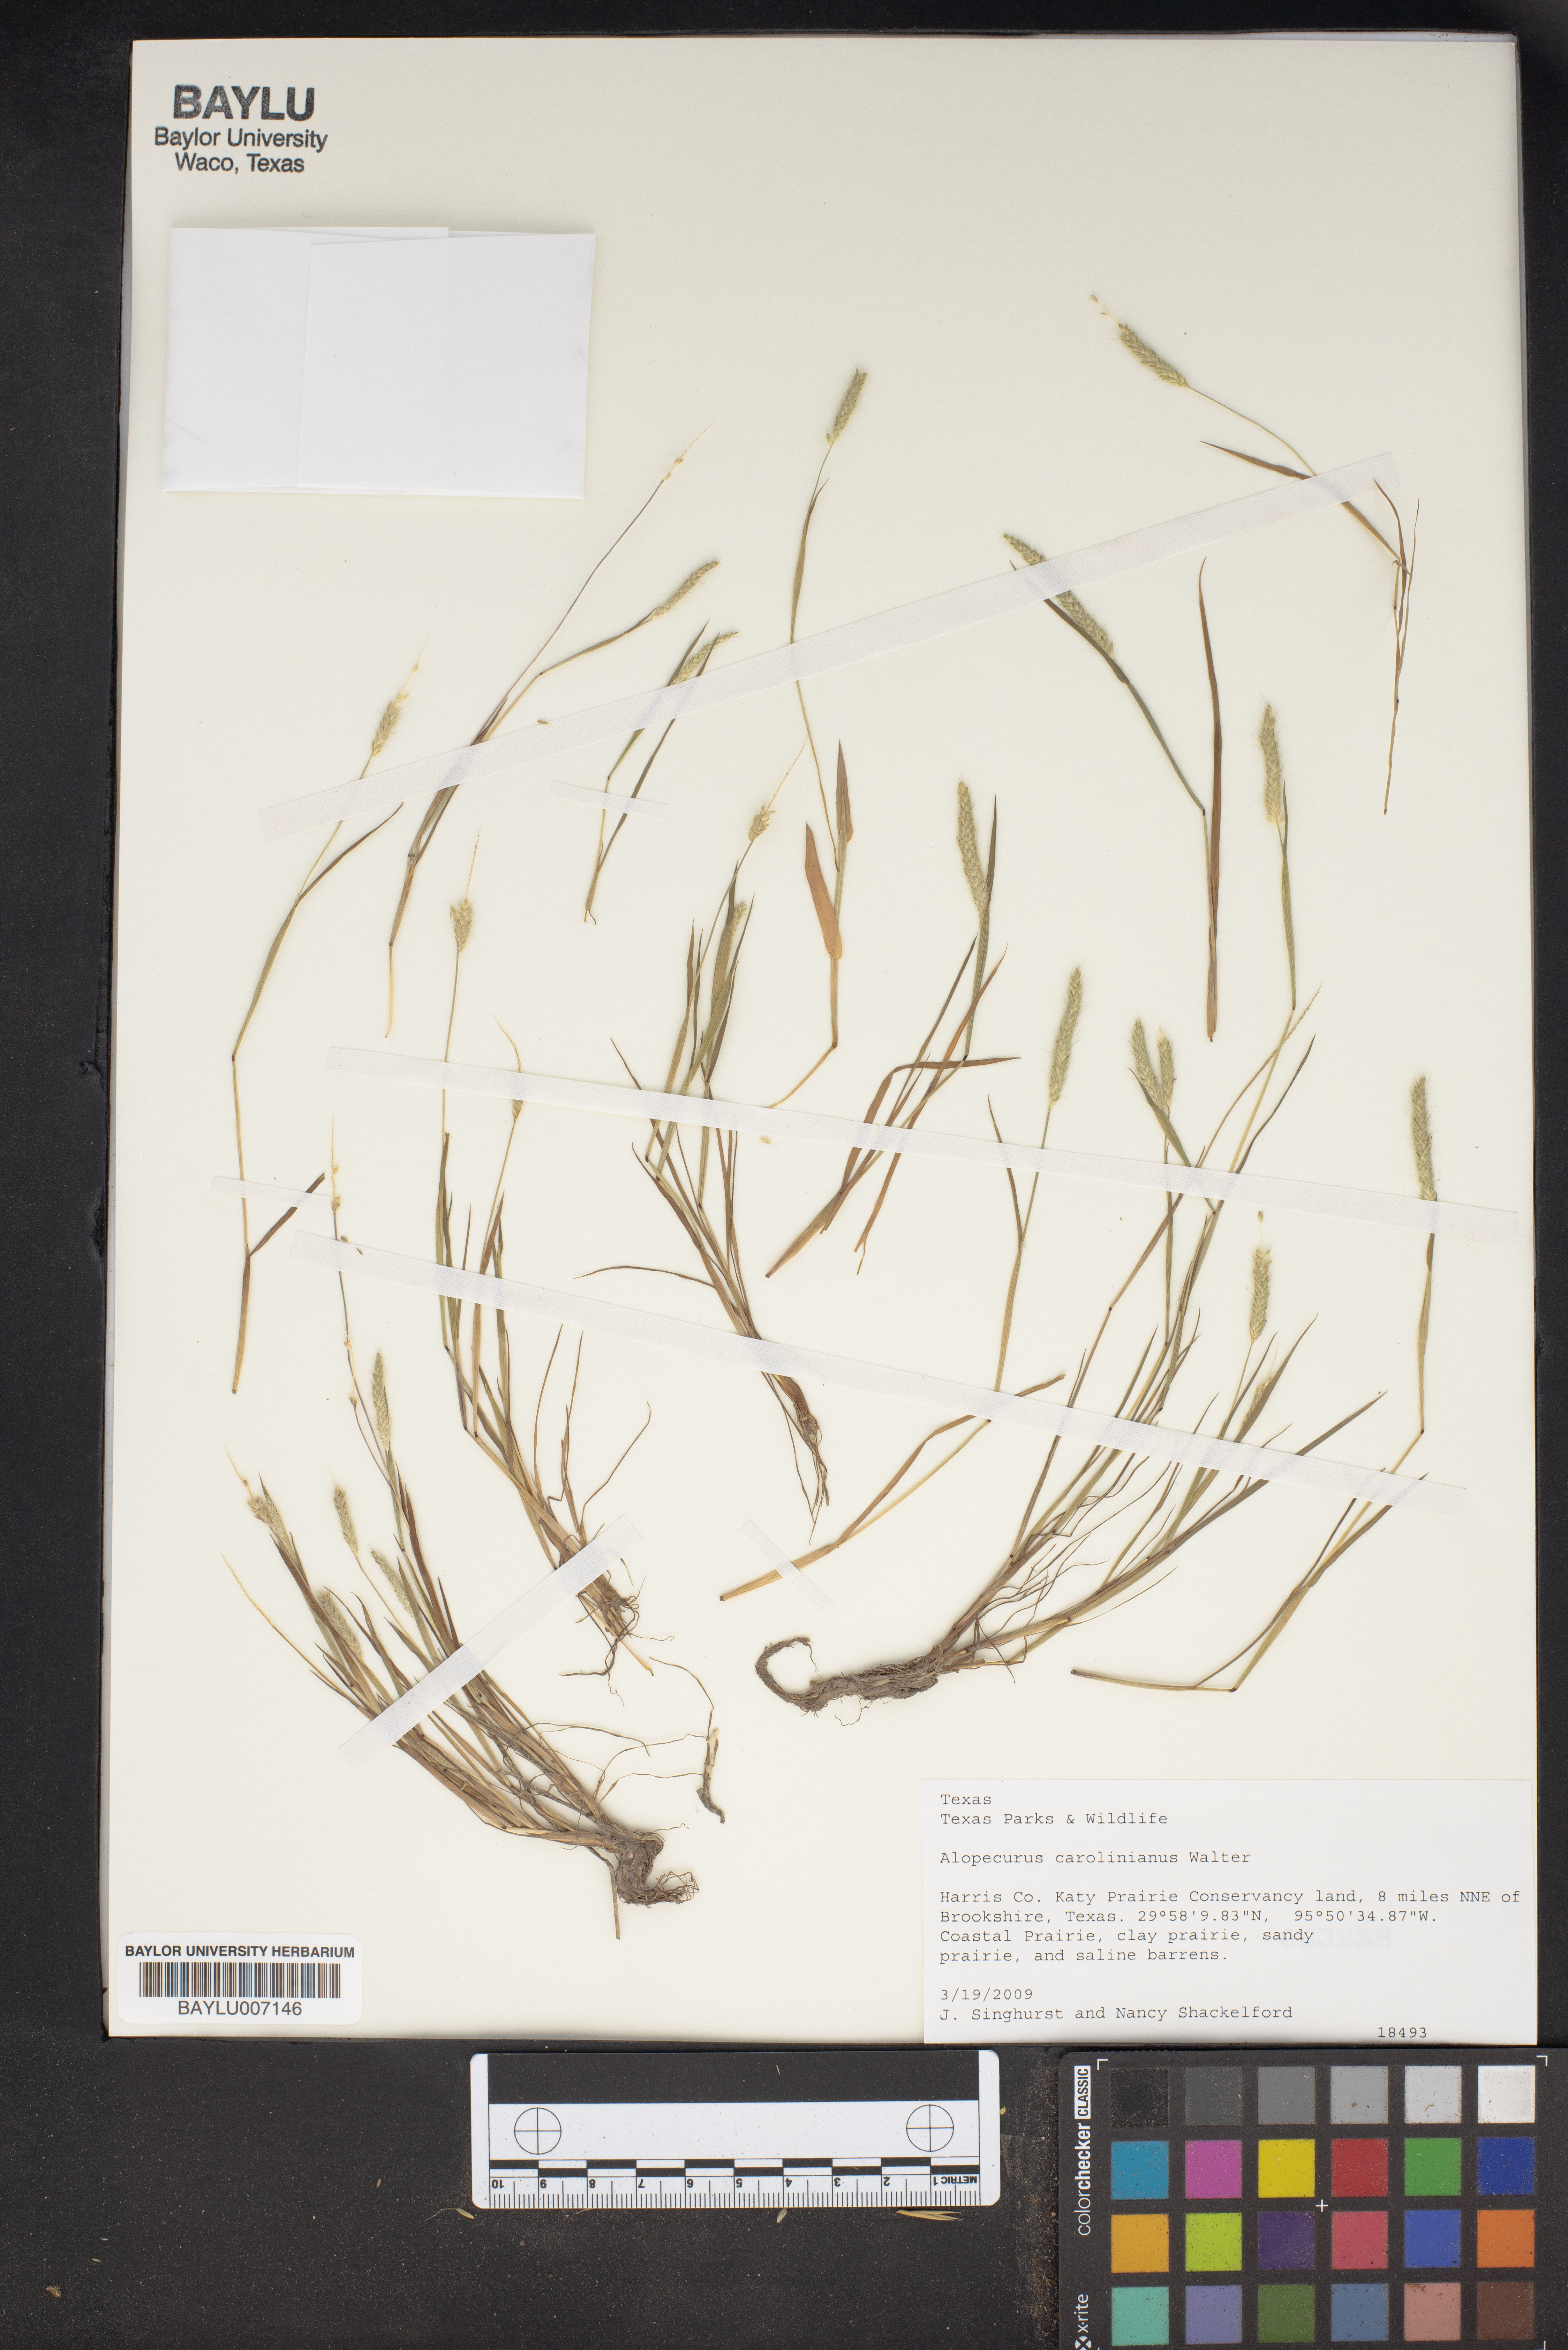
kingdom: Plantae
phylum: Tracheophyta
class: Liliopsida
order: Poales
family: Poaceae
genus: Alopecurus
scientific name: Alopecurus carolinianus
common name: Tufted foxtail
